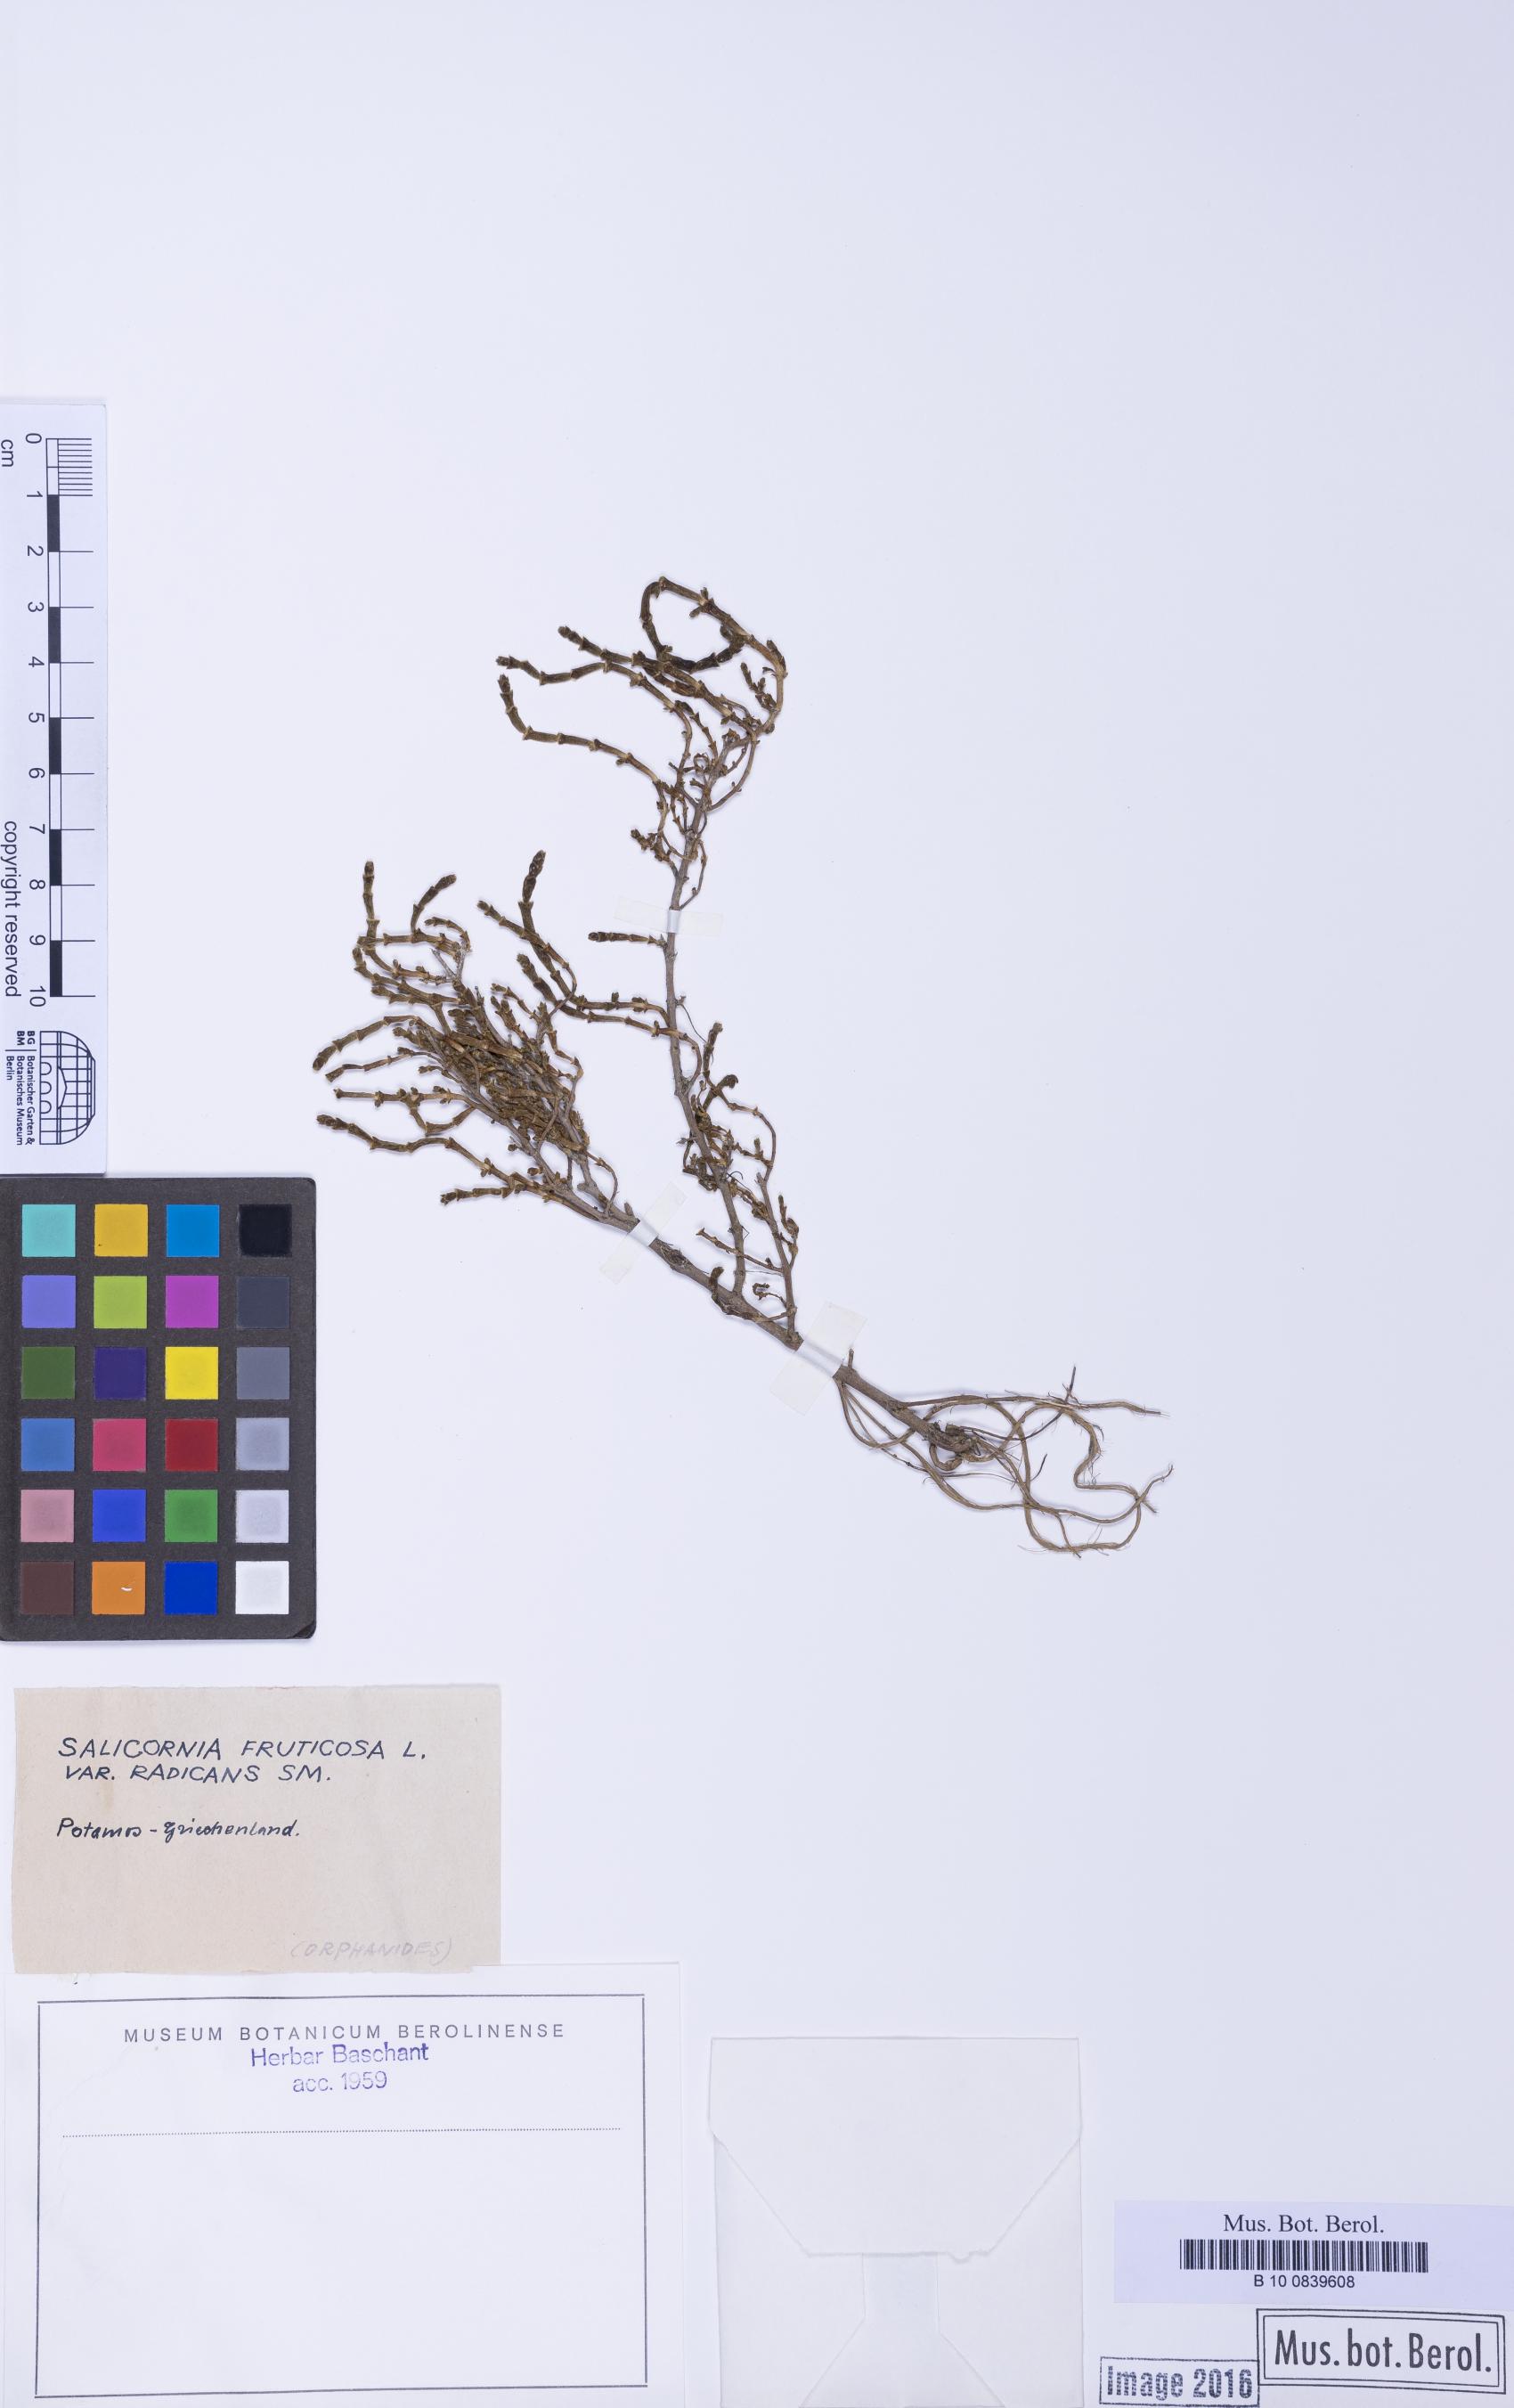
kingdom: Plantae
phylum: Tracheophyta
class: Magnoliopsida
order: Caryophyllales
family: Amaranthaceae
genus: Salicornia
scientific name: Salicornia perennis
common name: Chicken claws
